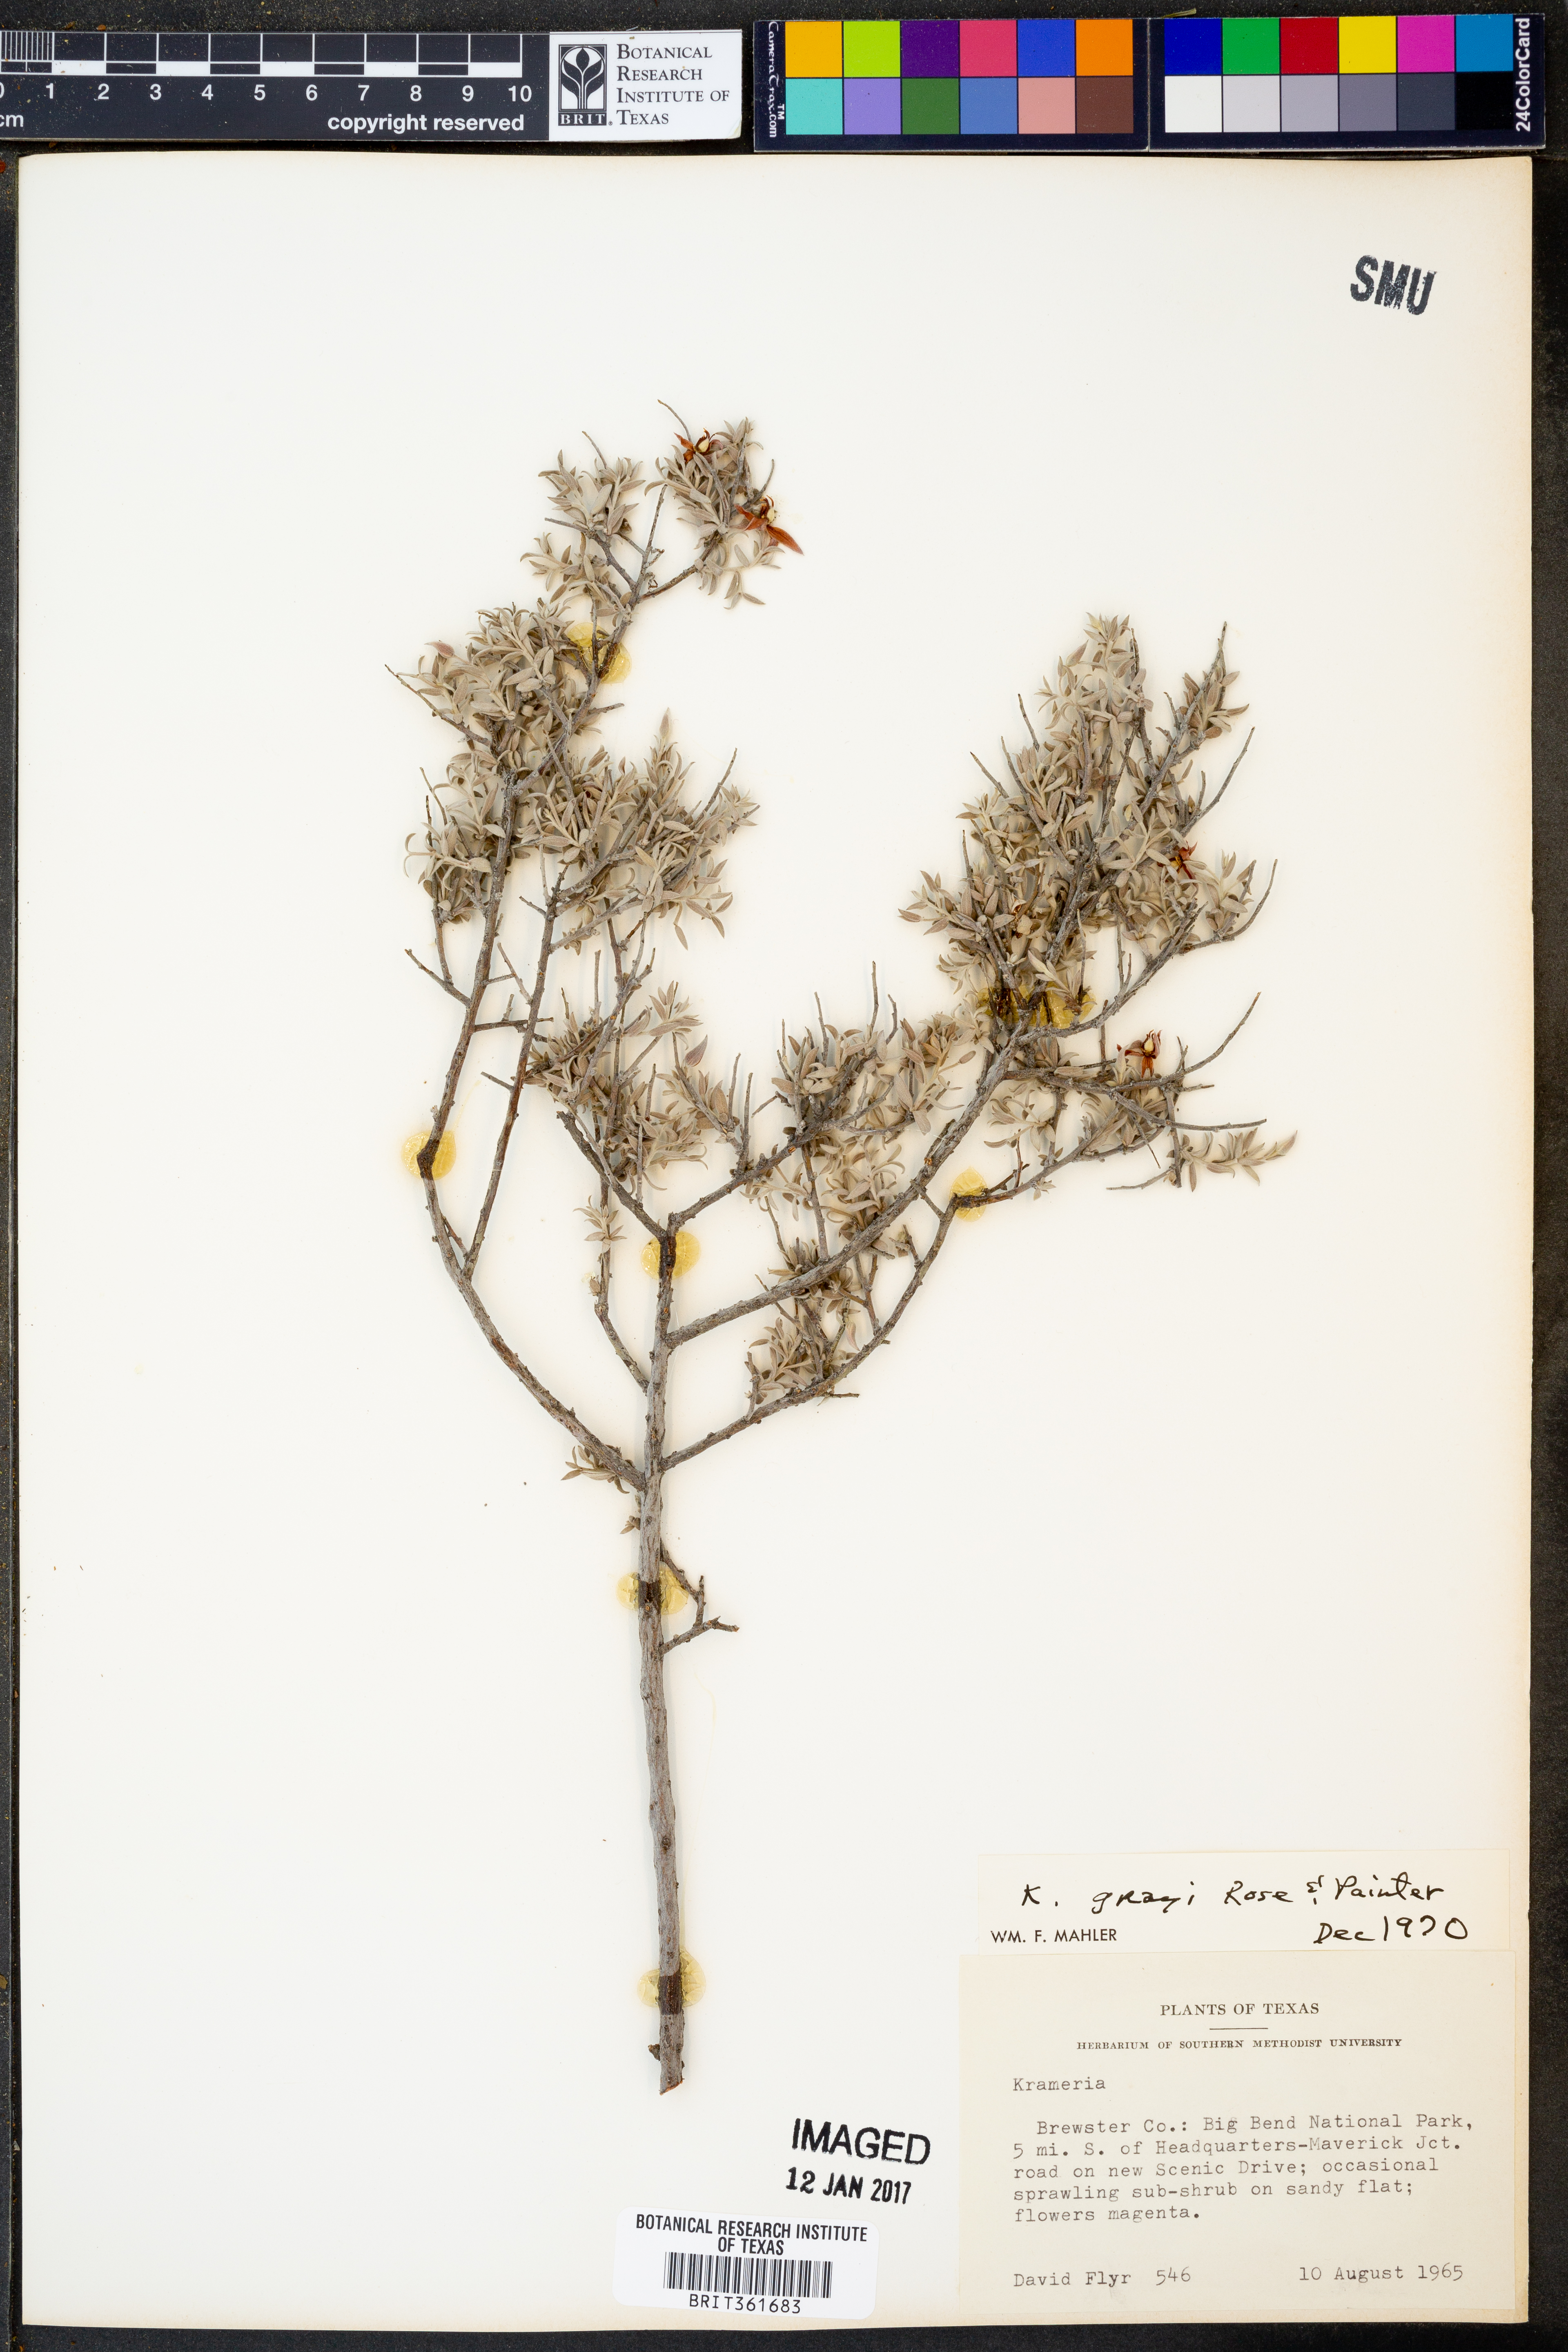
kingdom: Plantae
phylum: Tracheophyta
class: Magnoliopsida
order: Zygophyllales
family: Krameriaceae
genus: Krameria
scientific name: Krameria bicolor
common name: White ratany
